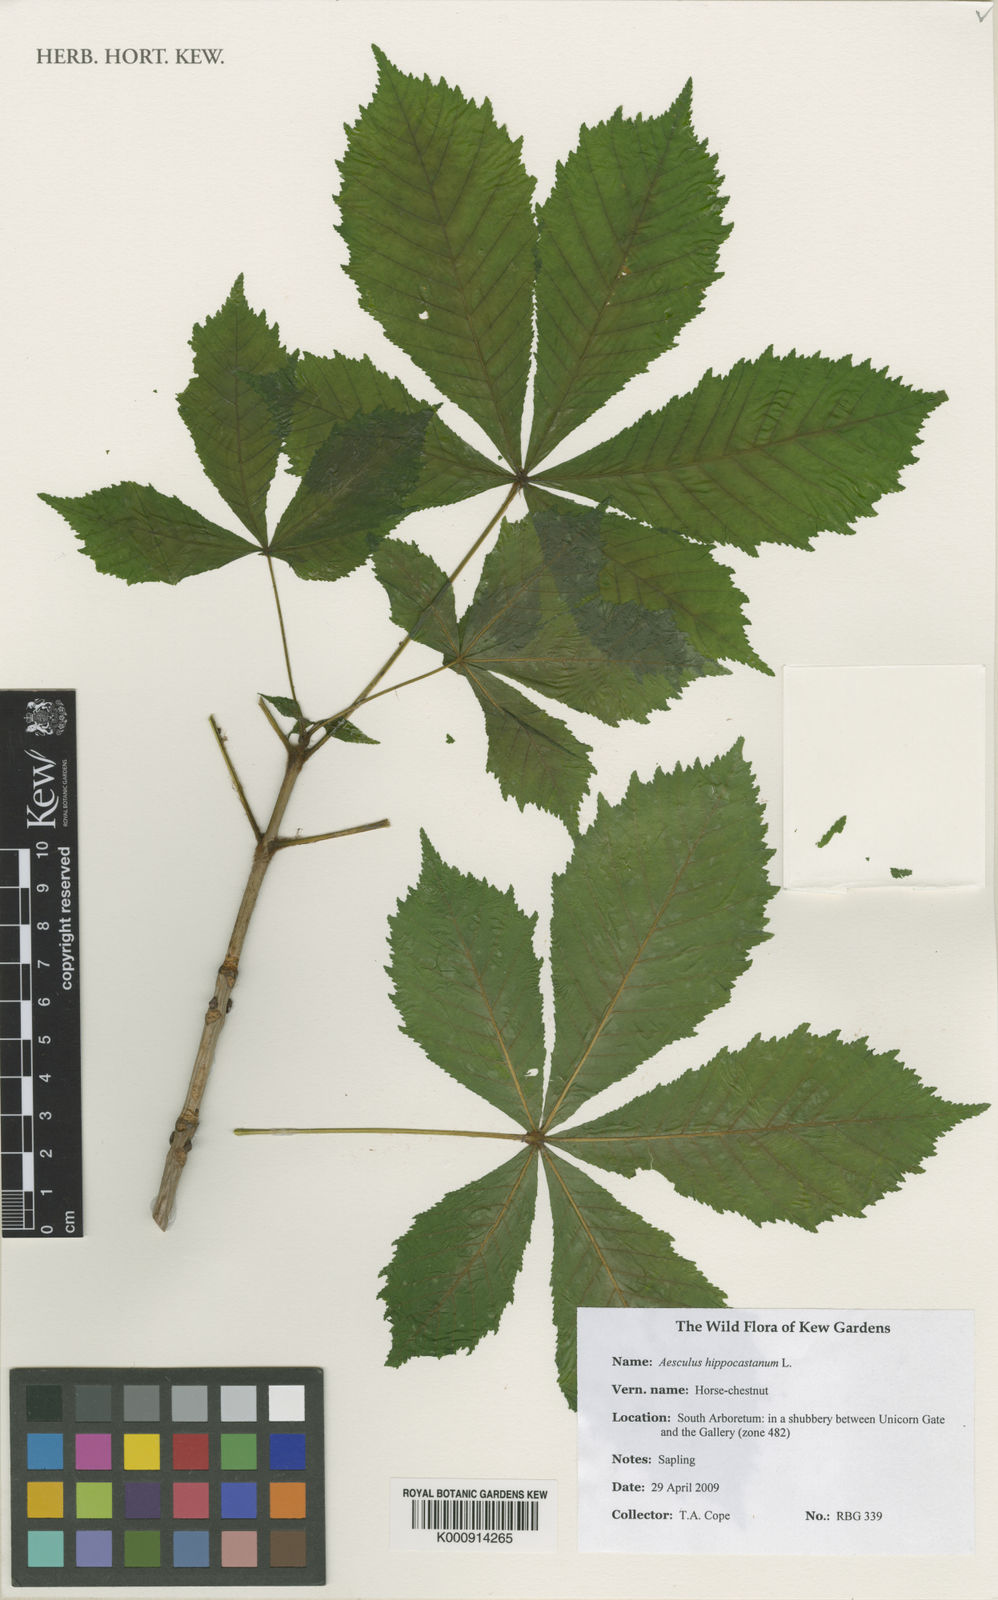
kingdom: Plantae
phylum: Tracheophyta
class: Magnoliopsida
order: Sapindales
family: Sapindaceae
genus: Aesculus
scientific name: Aesculus hippocastanum
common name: Horse-chestnut
